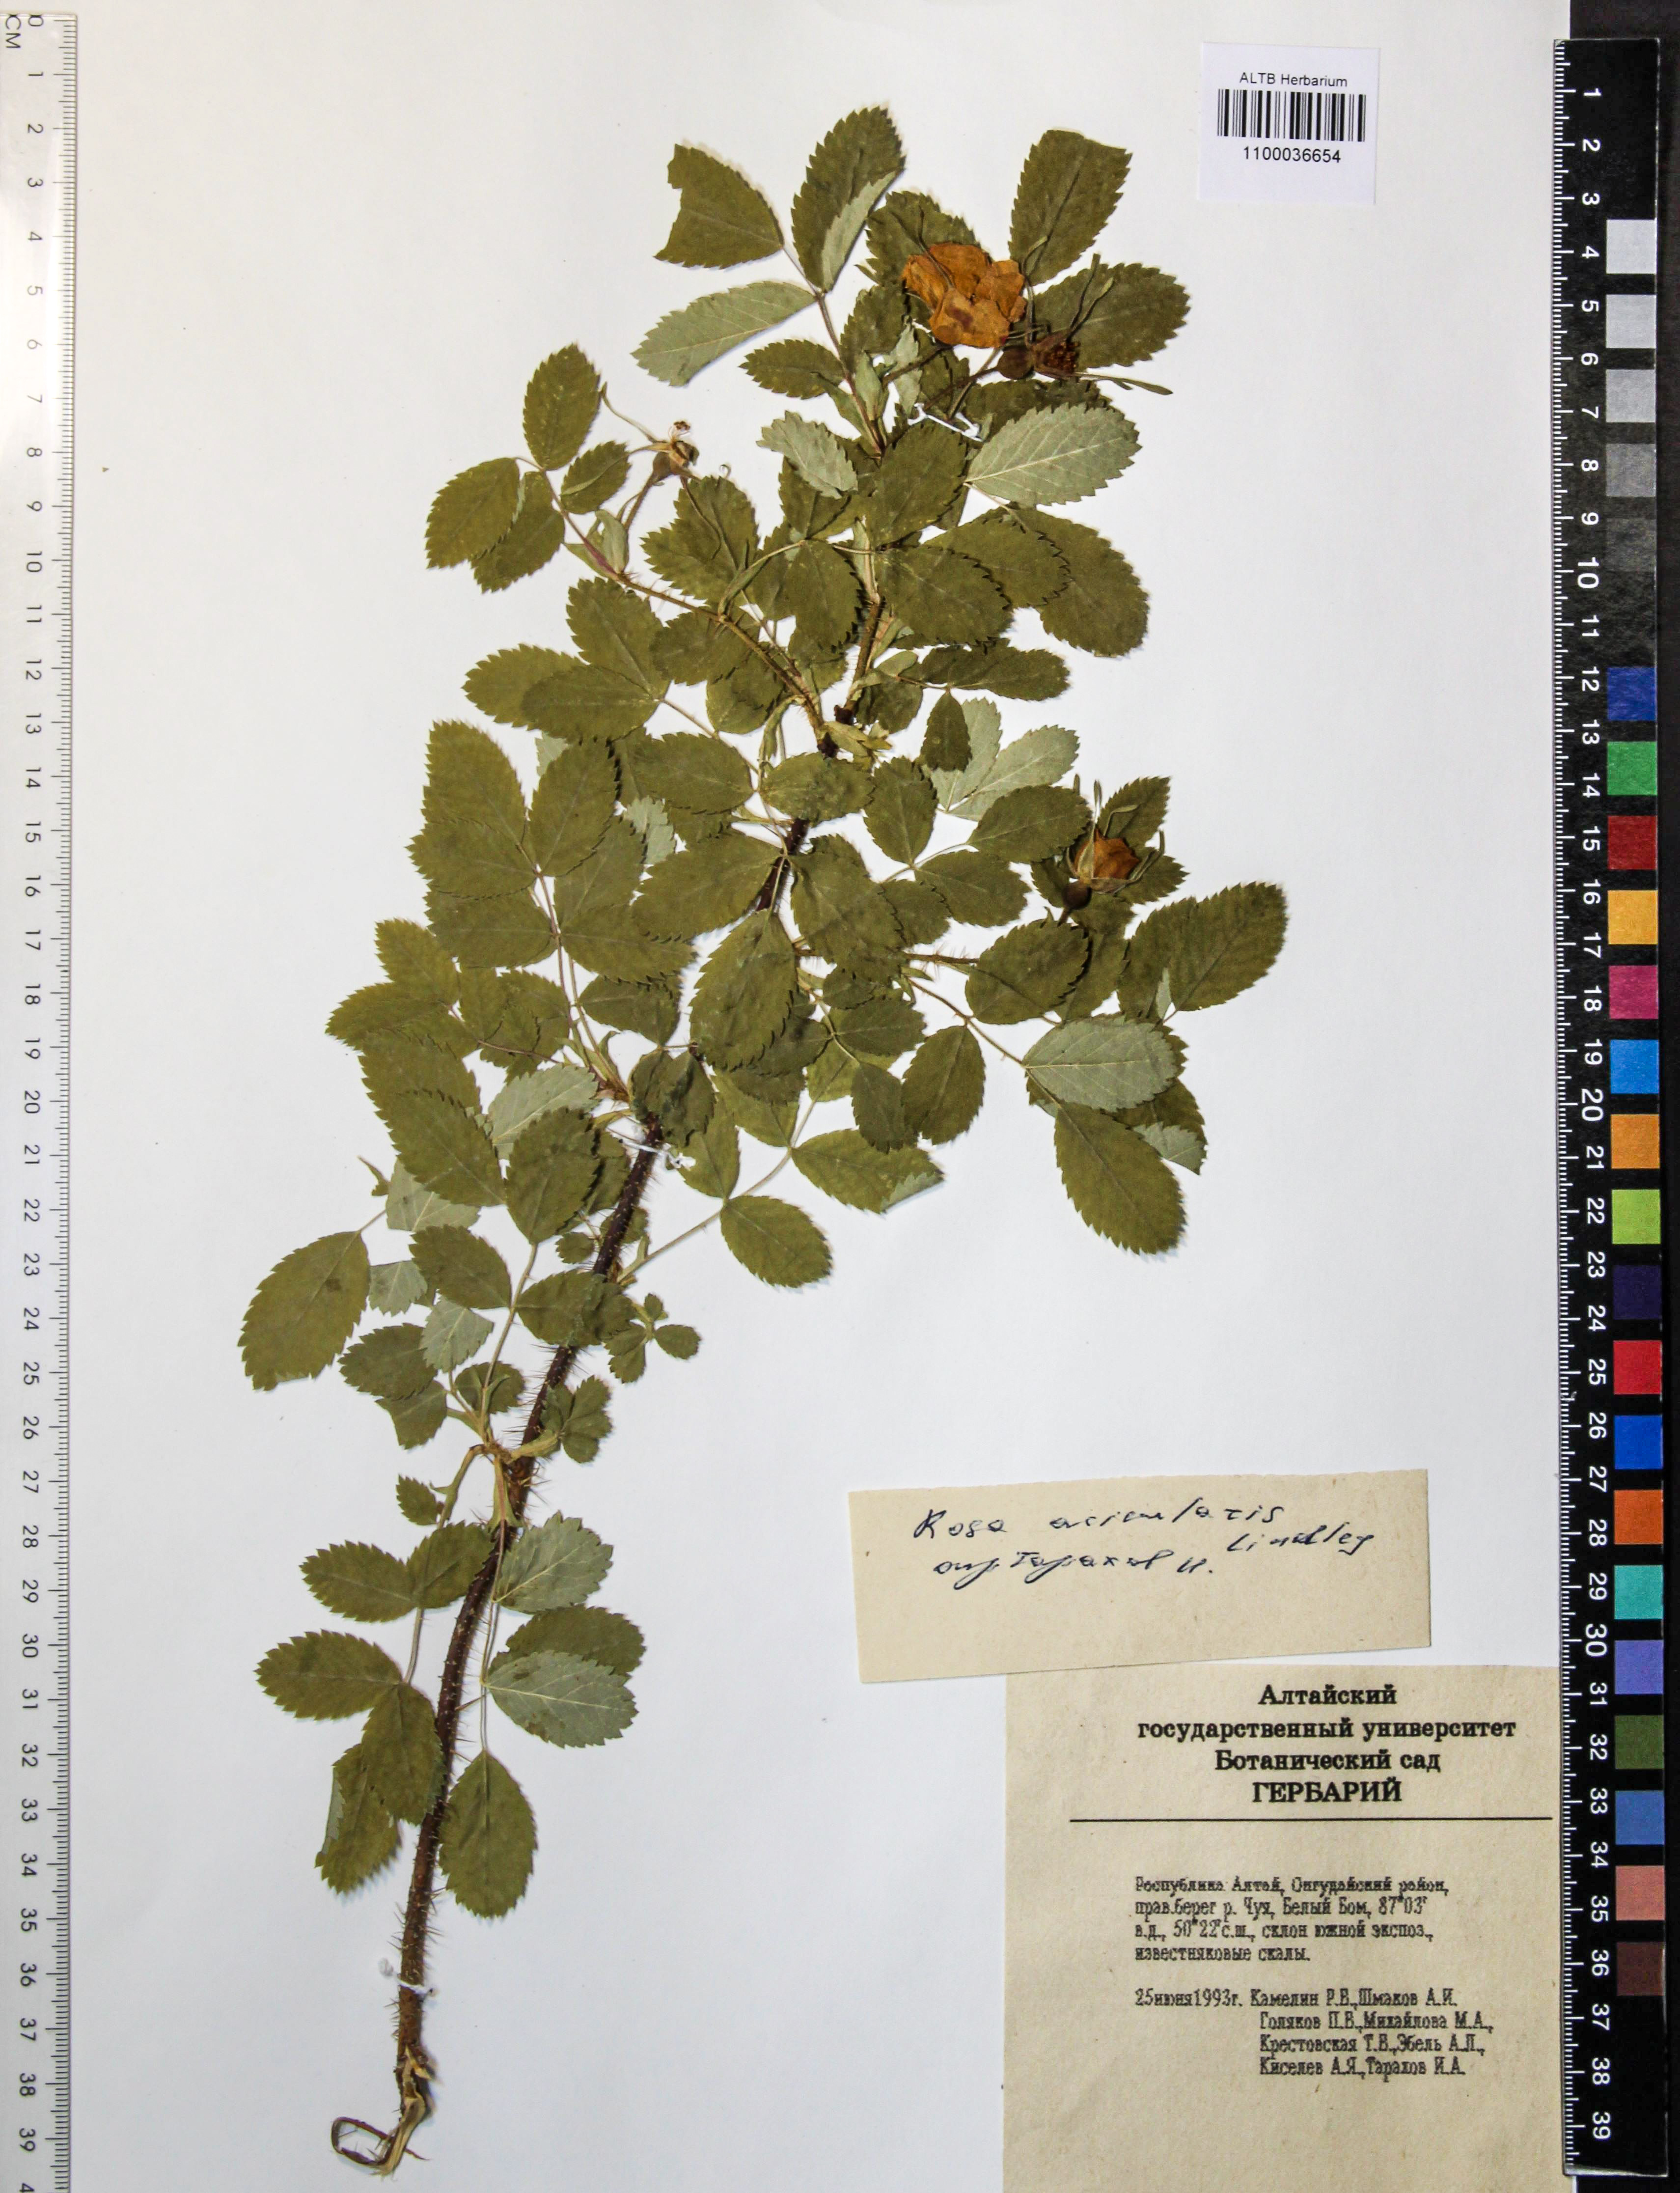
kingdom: Plantae
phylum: Tracheophyta
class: Magnoliopsida
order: Rosales
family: Rosaceae
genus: Rosa
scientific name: Rosa acicularis
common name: Prickly rose
